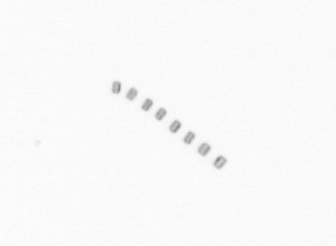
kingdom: Chromista
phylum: Ochrophyta
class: Bacillariophyceae
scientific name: Bacillariophyceae
